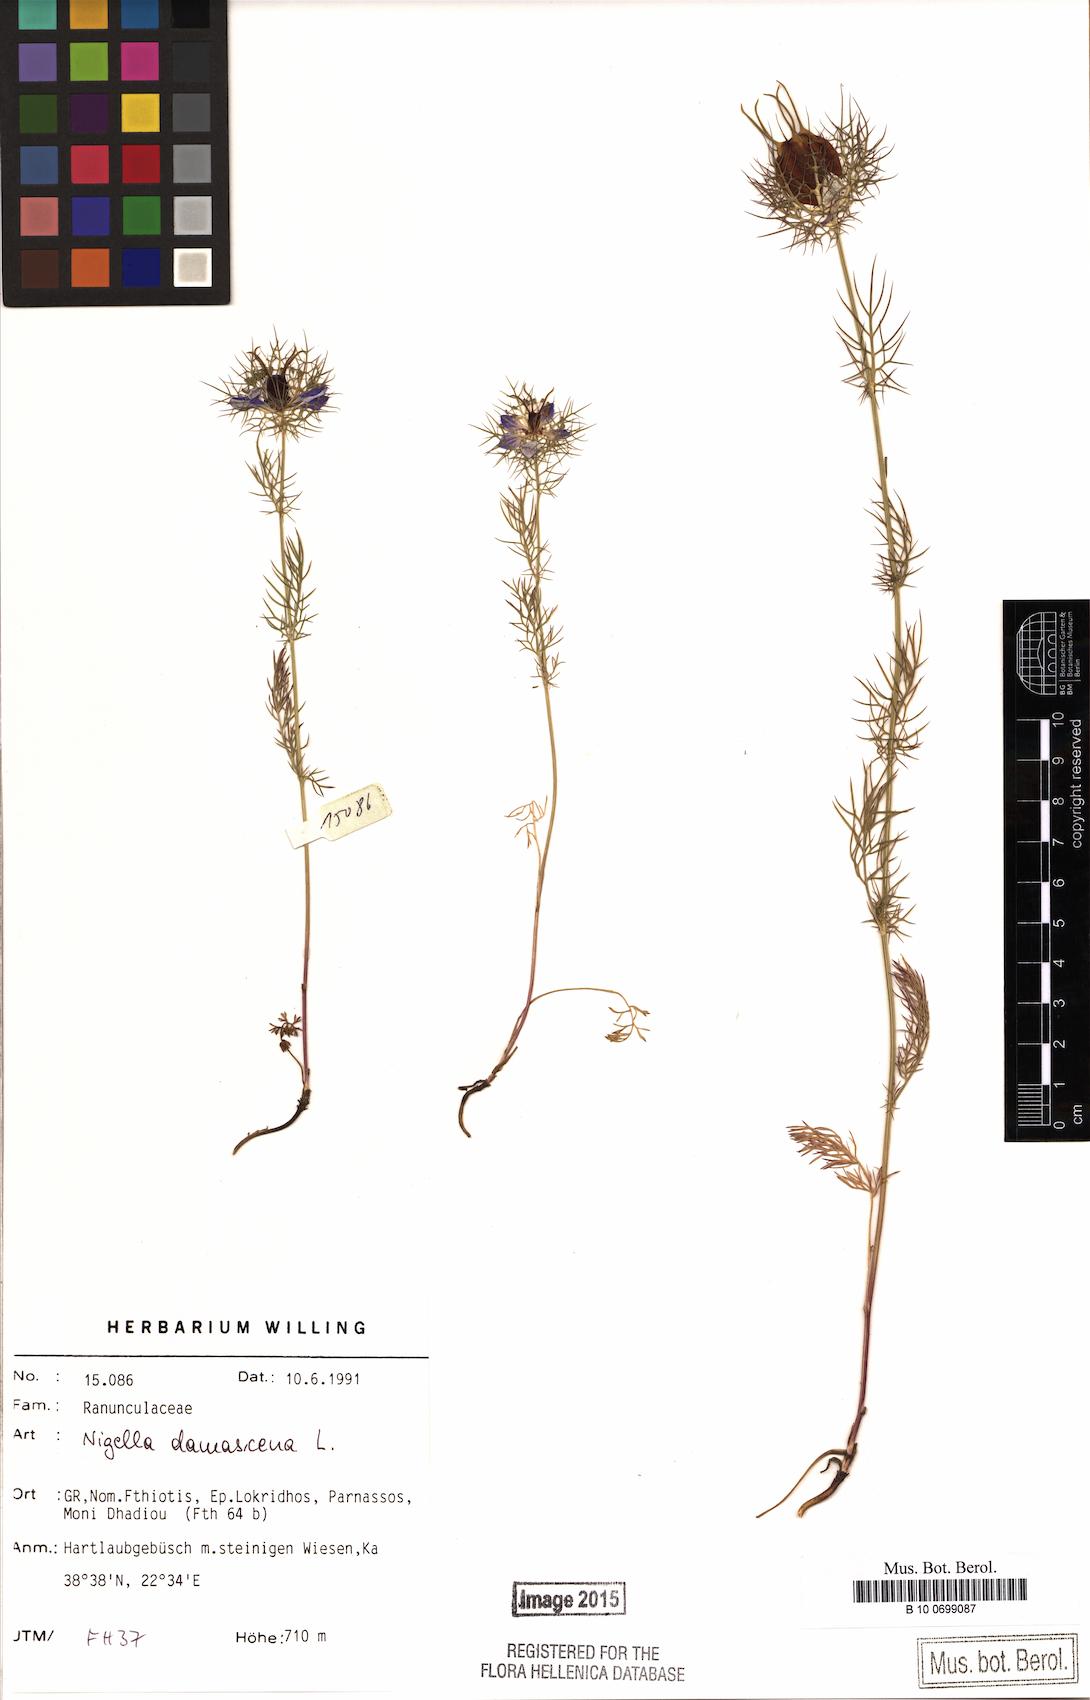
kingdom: Plantae
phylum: Tracheophyta
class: Magnoliopsida
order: Ranunculales
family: Ranunculaceae
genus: Nigella
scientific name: Nigella damascena
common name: Love-in-a-mist
